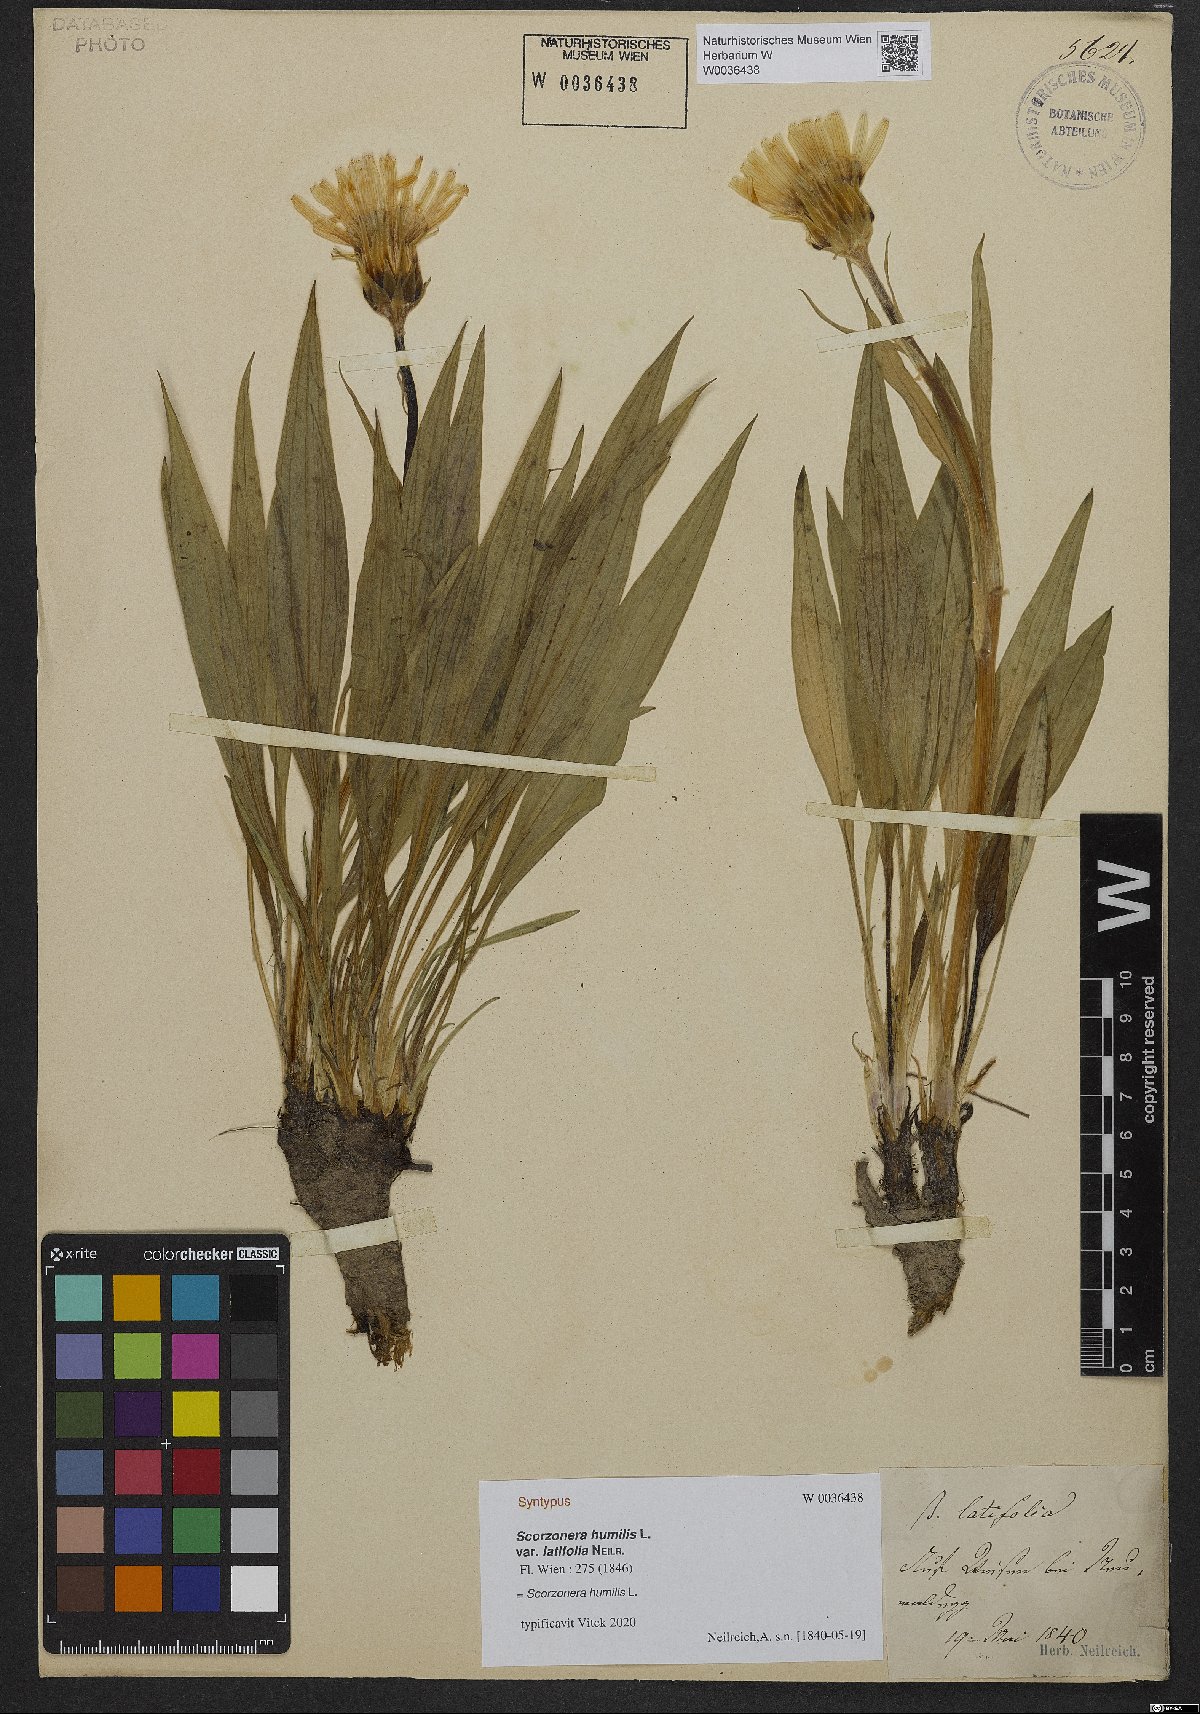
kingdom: Plantae
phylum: Tracheophyta
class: Magnoliopsida
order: Asterales
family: Asteraceae
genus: Scorzonera
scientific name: Scorzonera humilis
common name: Viper's-grass
